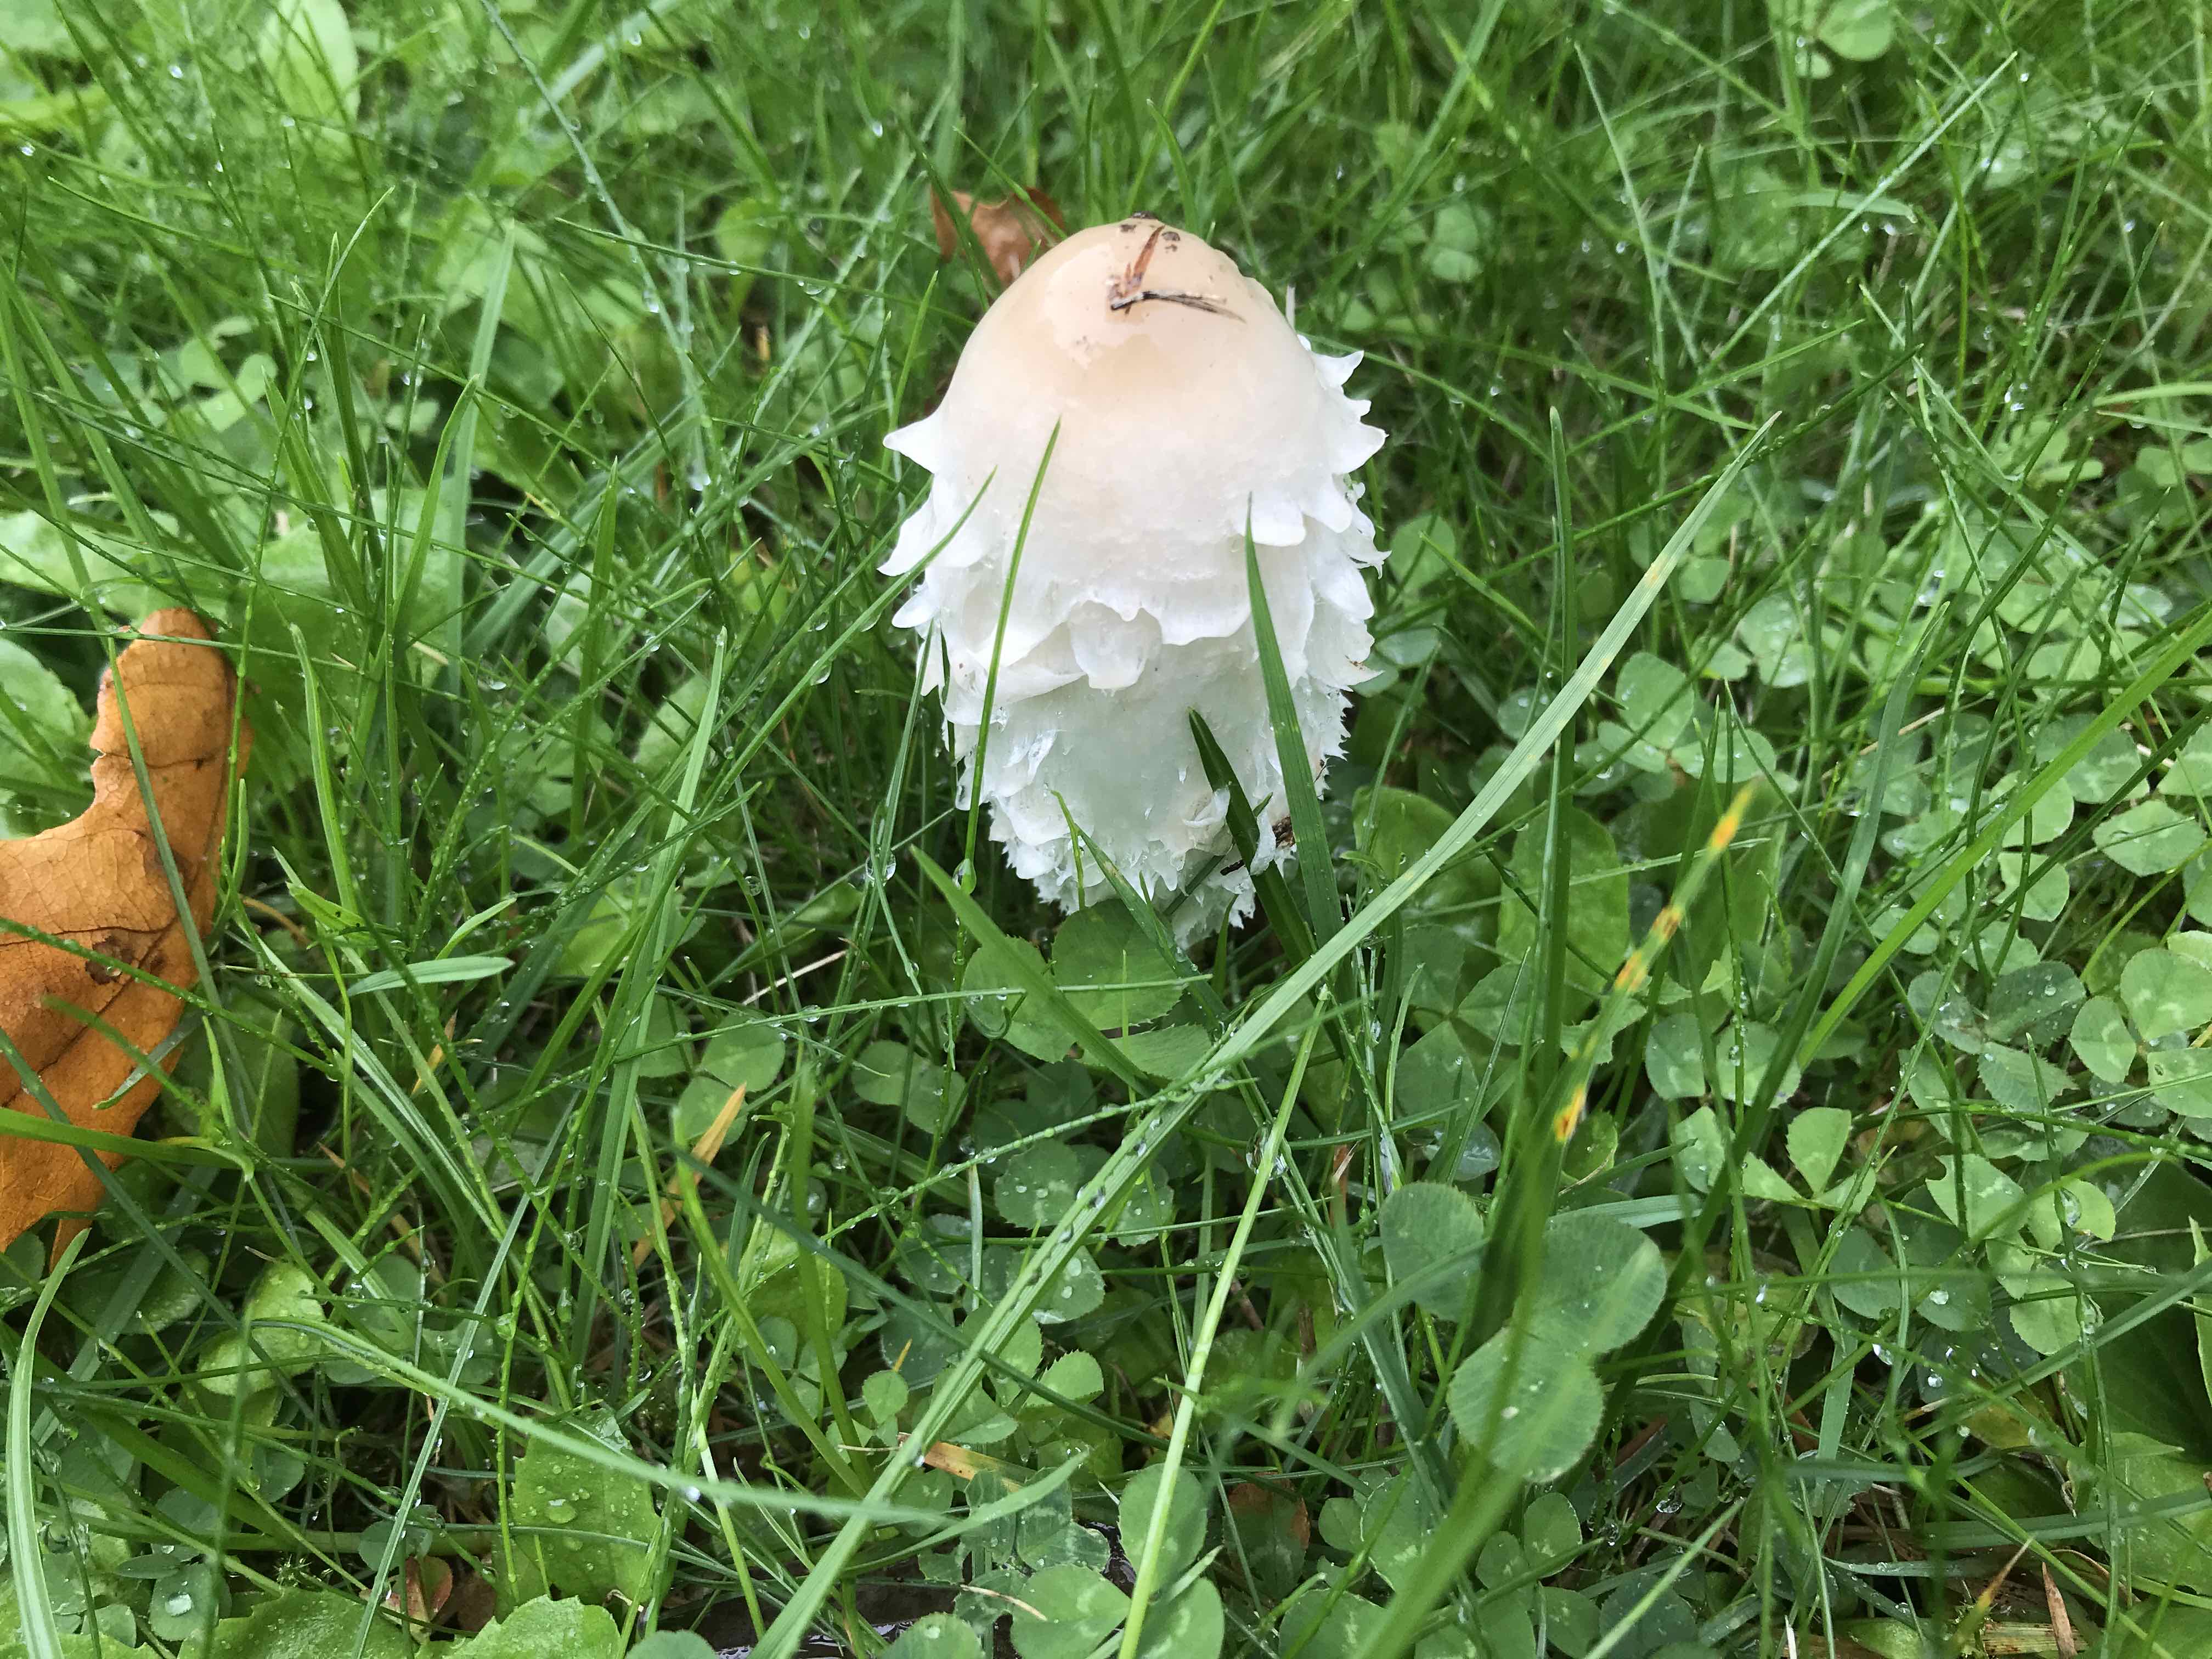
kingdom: Fungi
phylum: Basidiomycota
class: Agaricomycetes
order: Agaricales
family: Agaricaceae
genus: Coprinus
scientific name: Coprinus comatus
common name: stor parykhat
